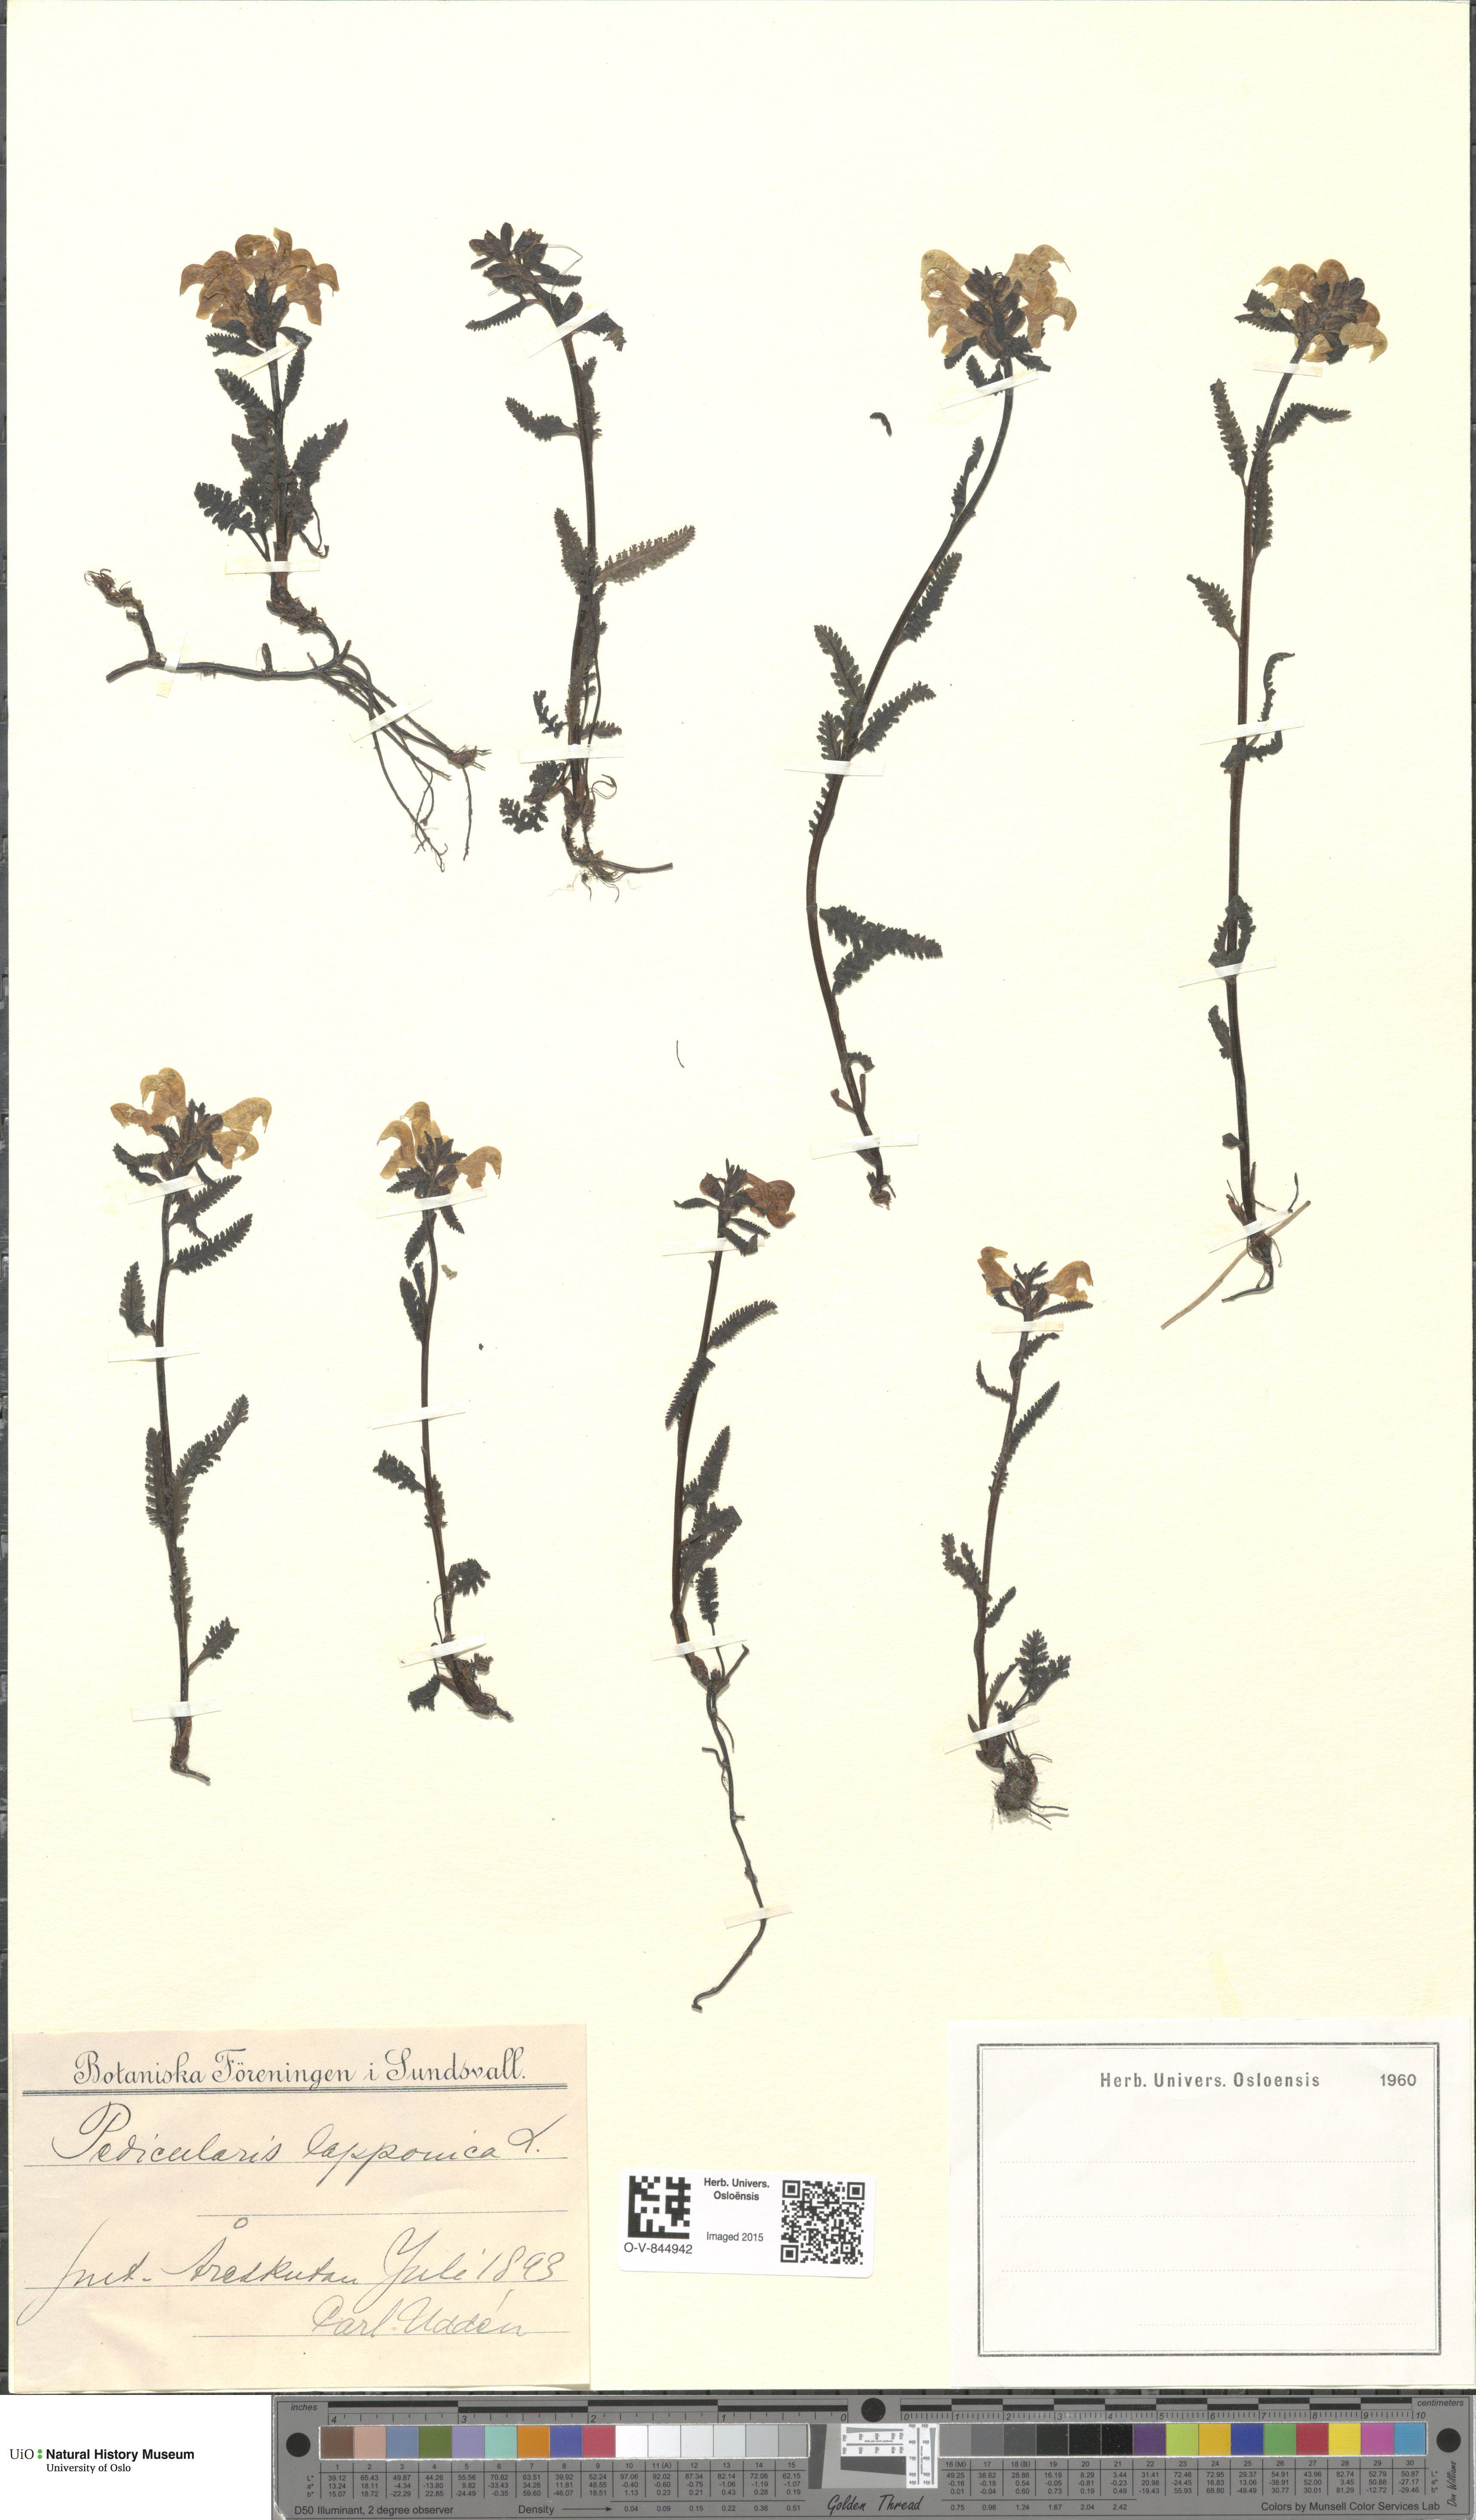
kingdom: Plantae
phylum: Tracheophyta
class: Magnoliopsida
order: Lamiales
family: Orobanchaceae
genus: Pedicularis
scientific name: Pedicularis lapponica
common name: Lapland lousewort
